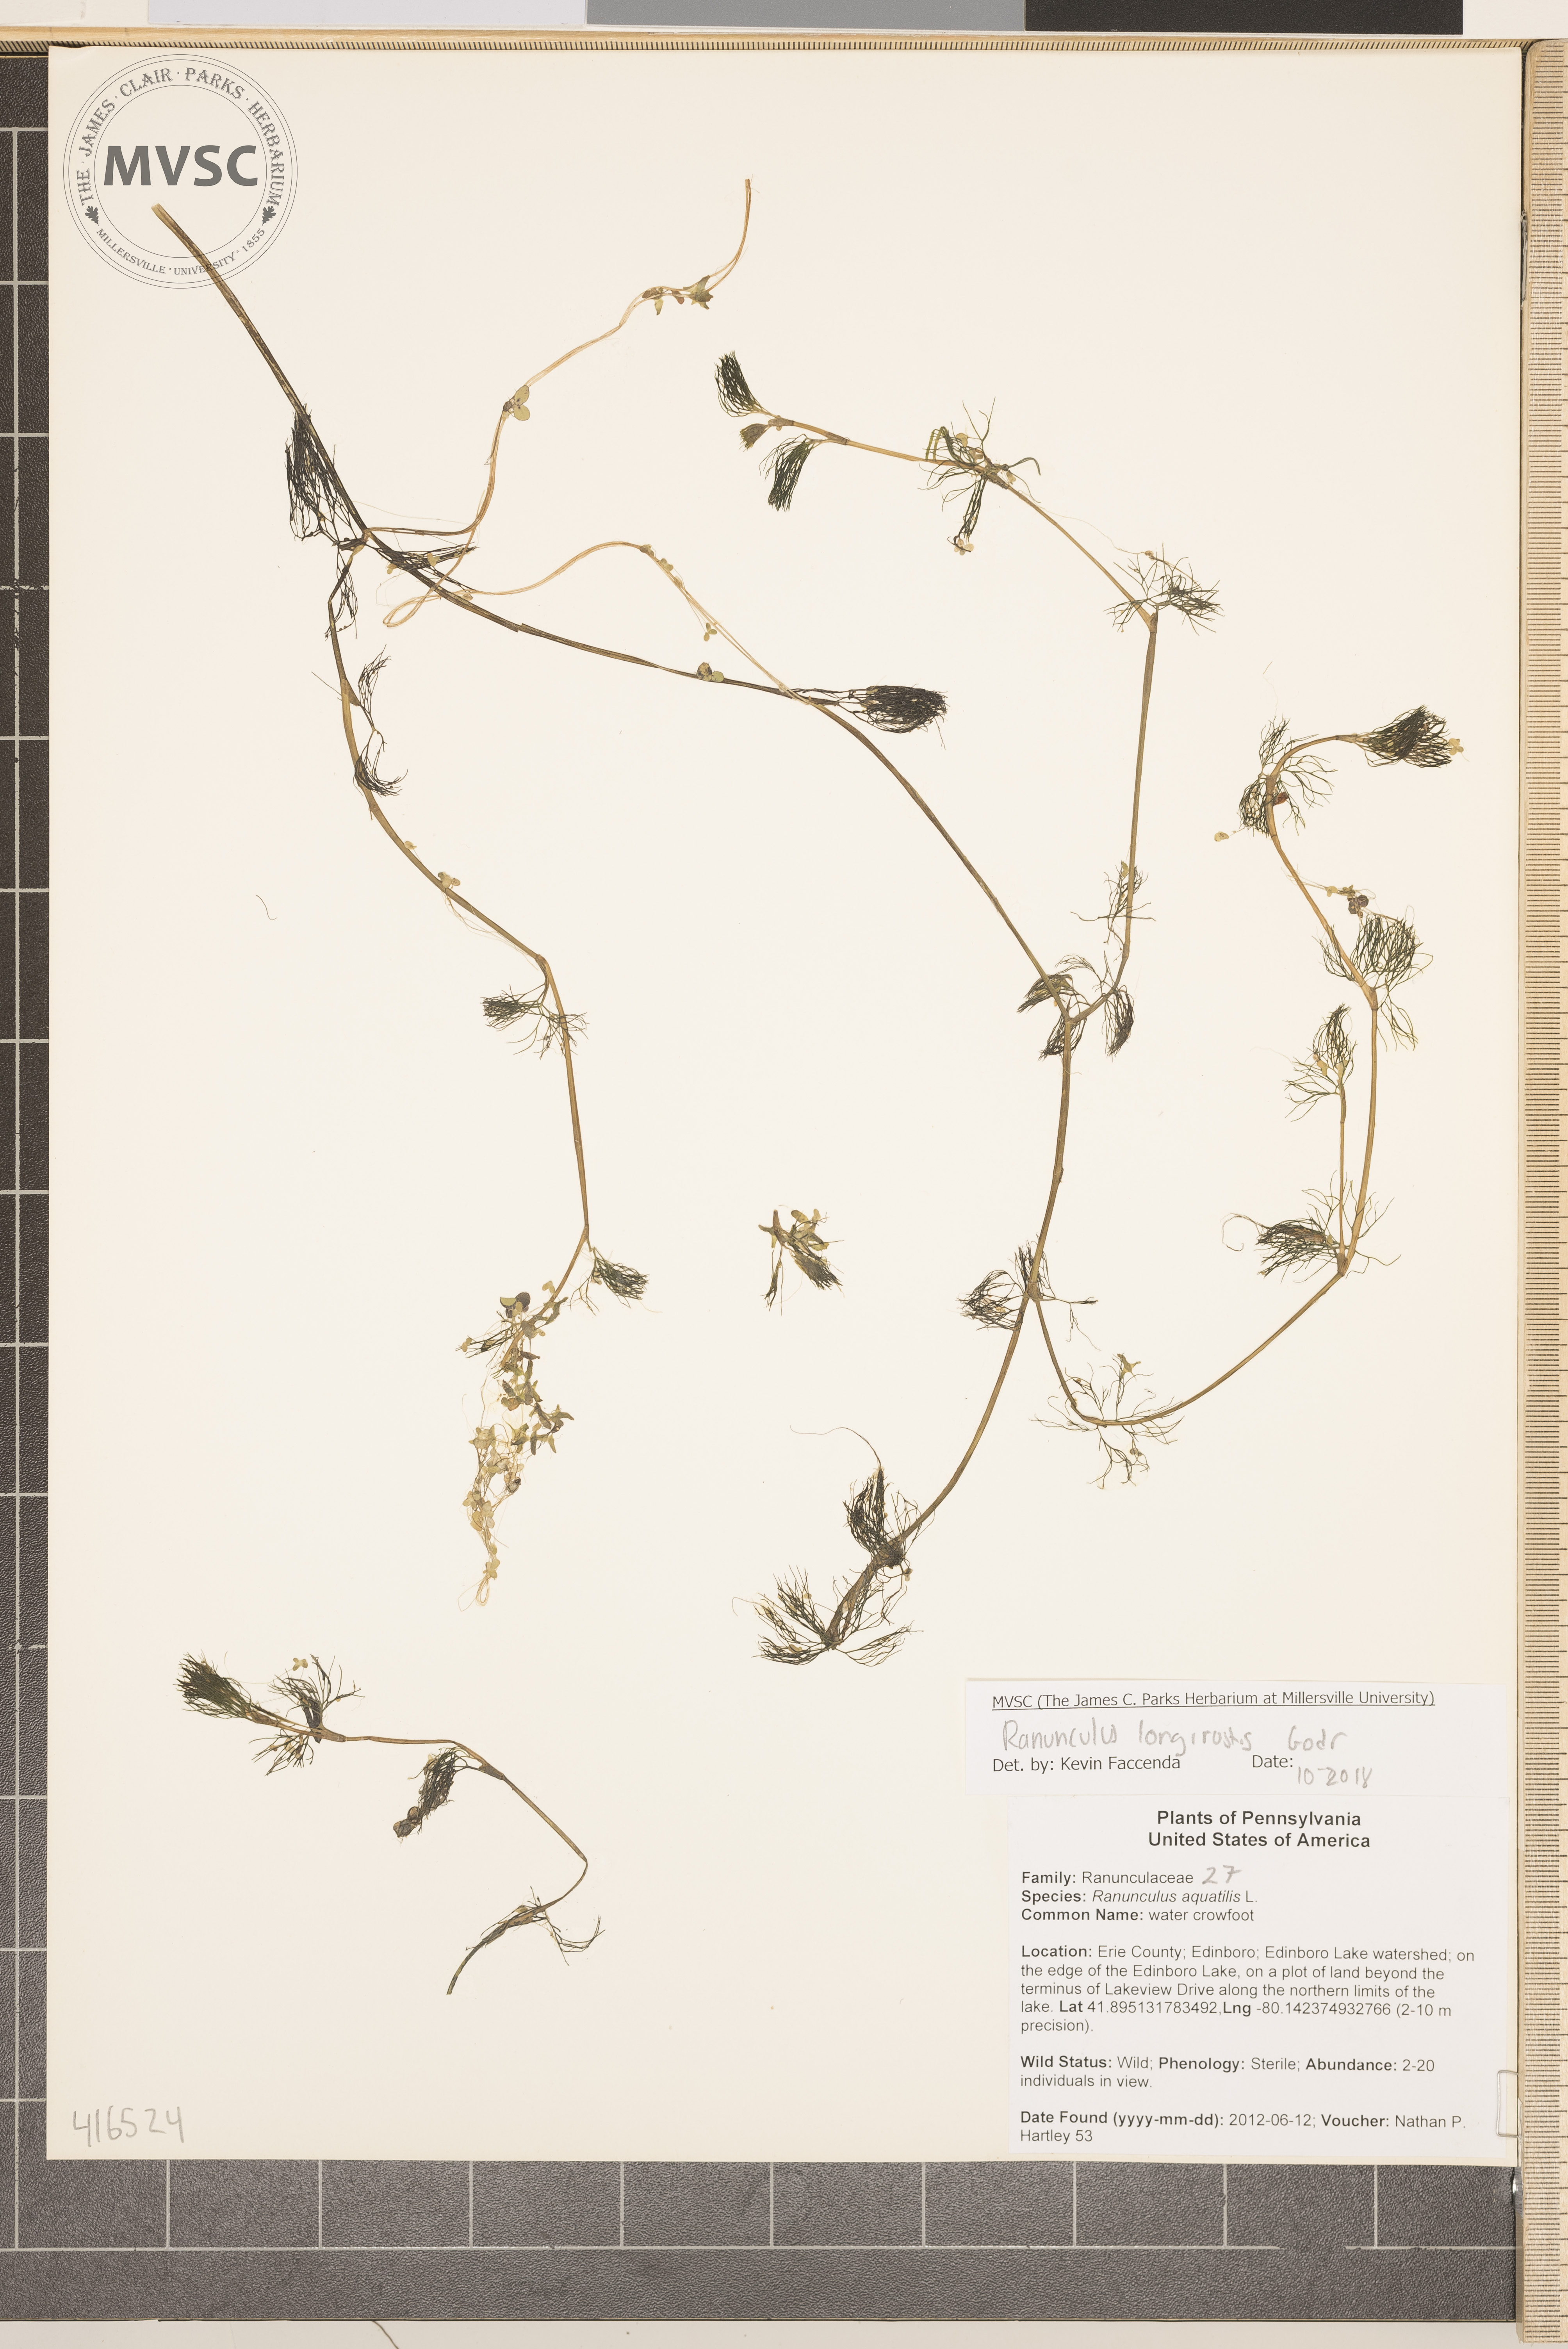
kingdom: Plantae
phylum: Tracheophyta
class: Magnoliopsida
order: Ranunculales
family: Ranunculaceae
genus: Ranunculus
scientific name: Ranunculus longirostris
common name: water crowfoot
